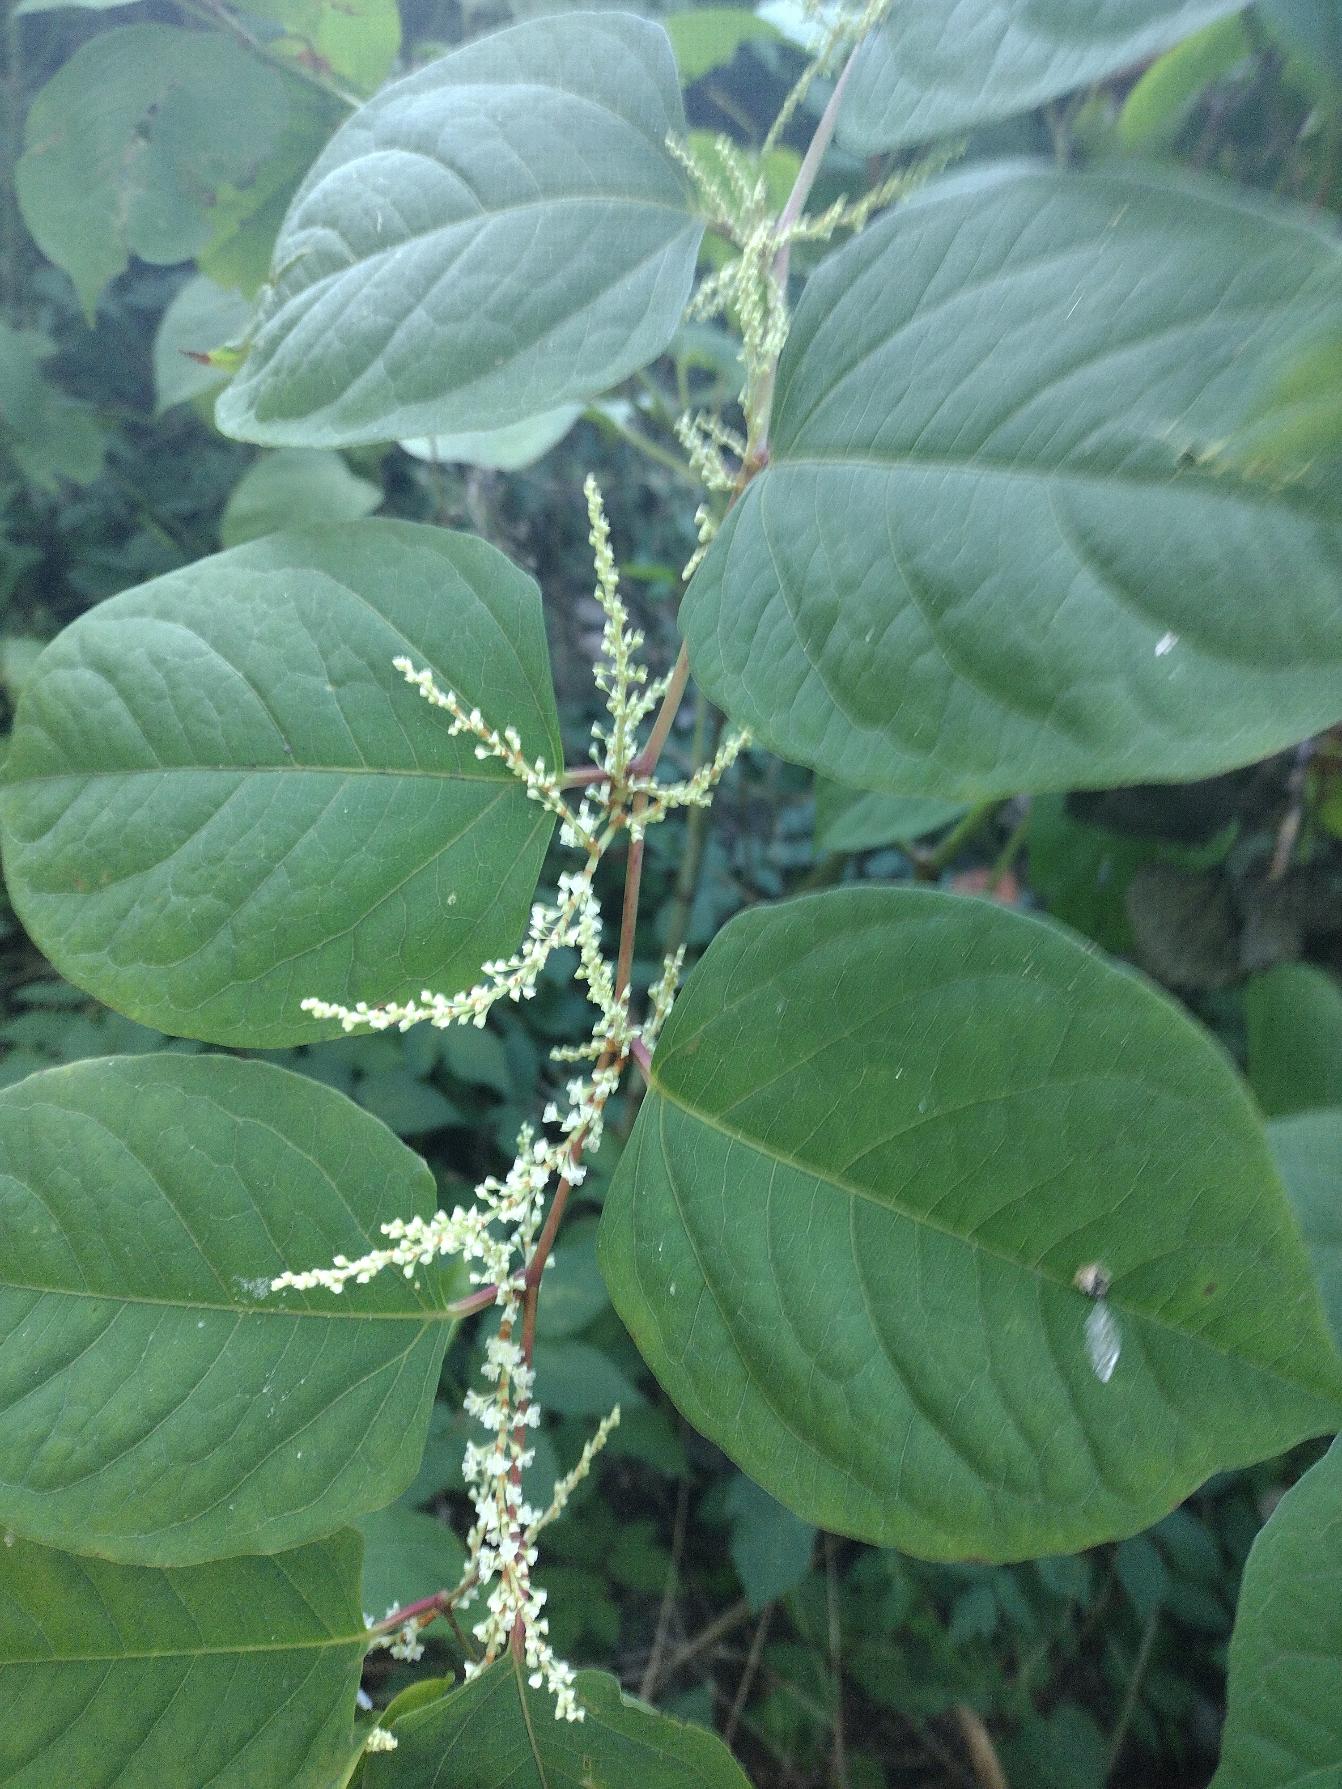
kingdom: Plantae
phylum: Tracheophyta
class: Magnoliopsida
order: Caryophyllales
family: Polygonaceae
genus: Reynoutria
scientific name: Reynoutria japonica
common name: Japan-pileurt
